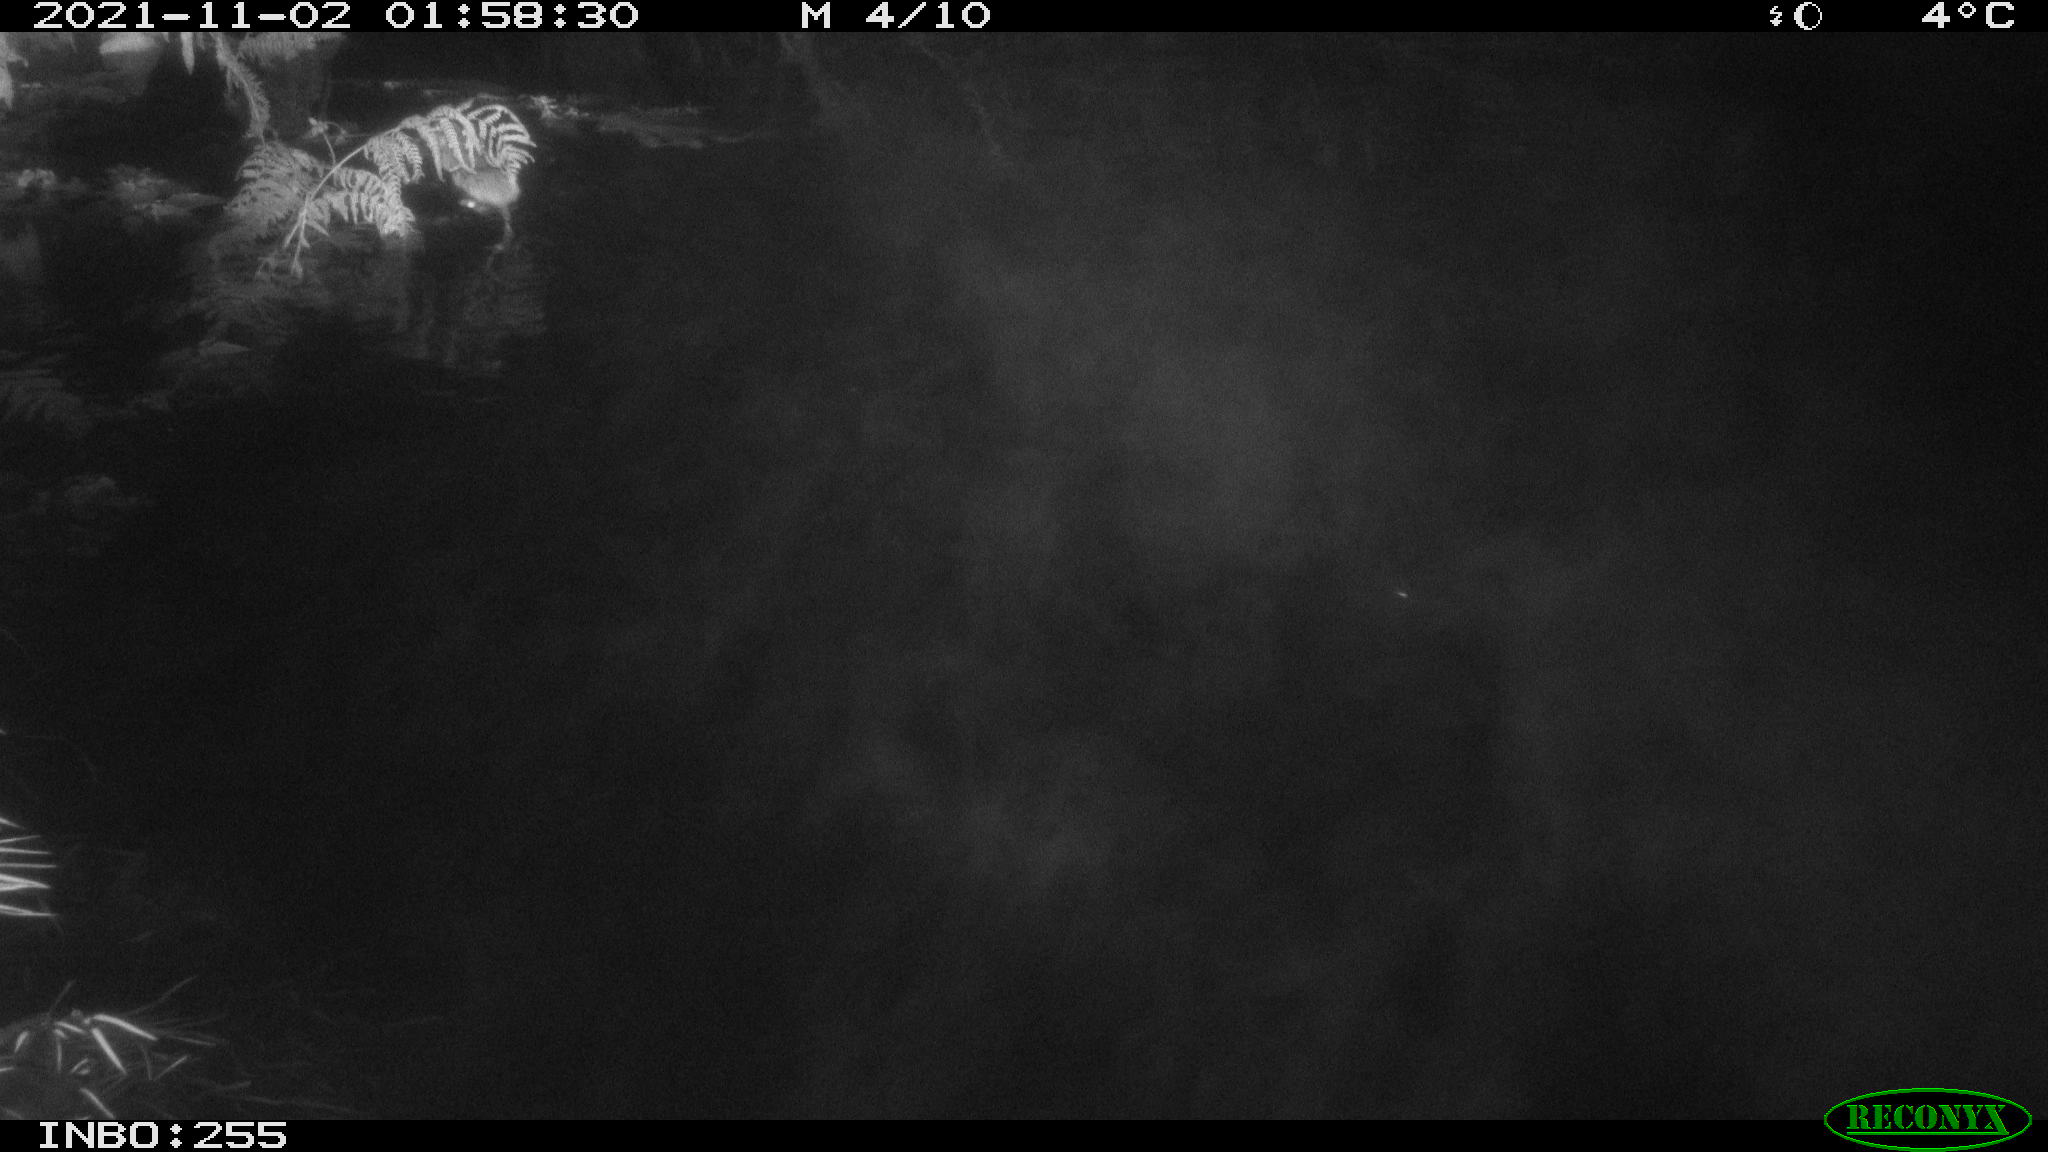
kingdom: Animalia
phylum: Chordata
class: Mammalia
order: Rodentia
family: Muridae
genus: Rattus
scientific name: Rattus norvegicus
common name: Brown rat
